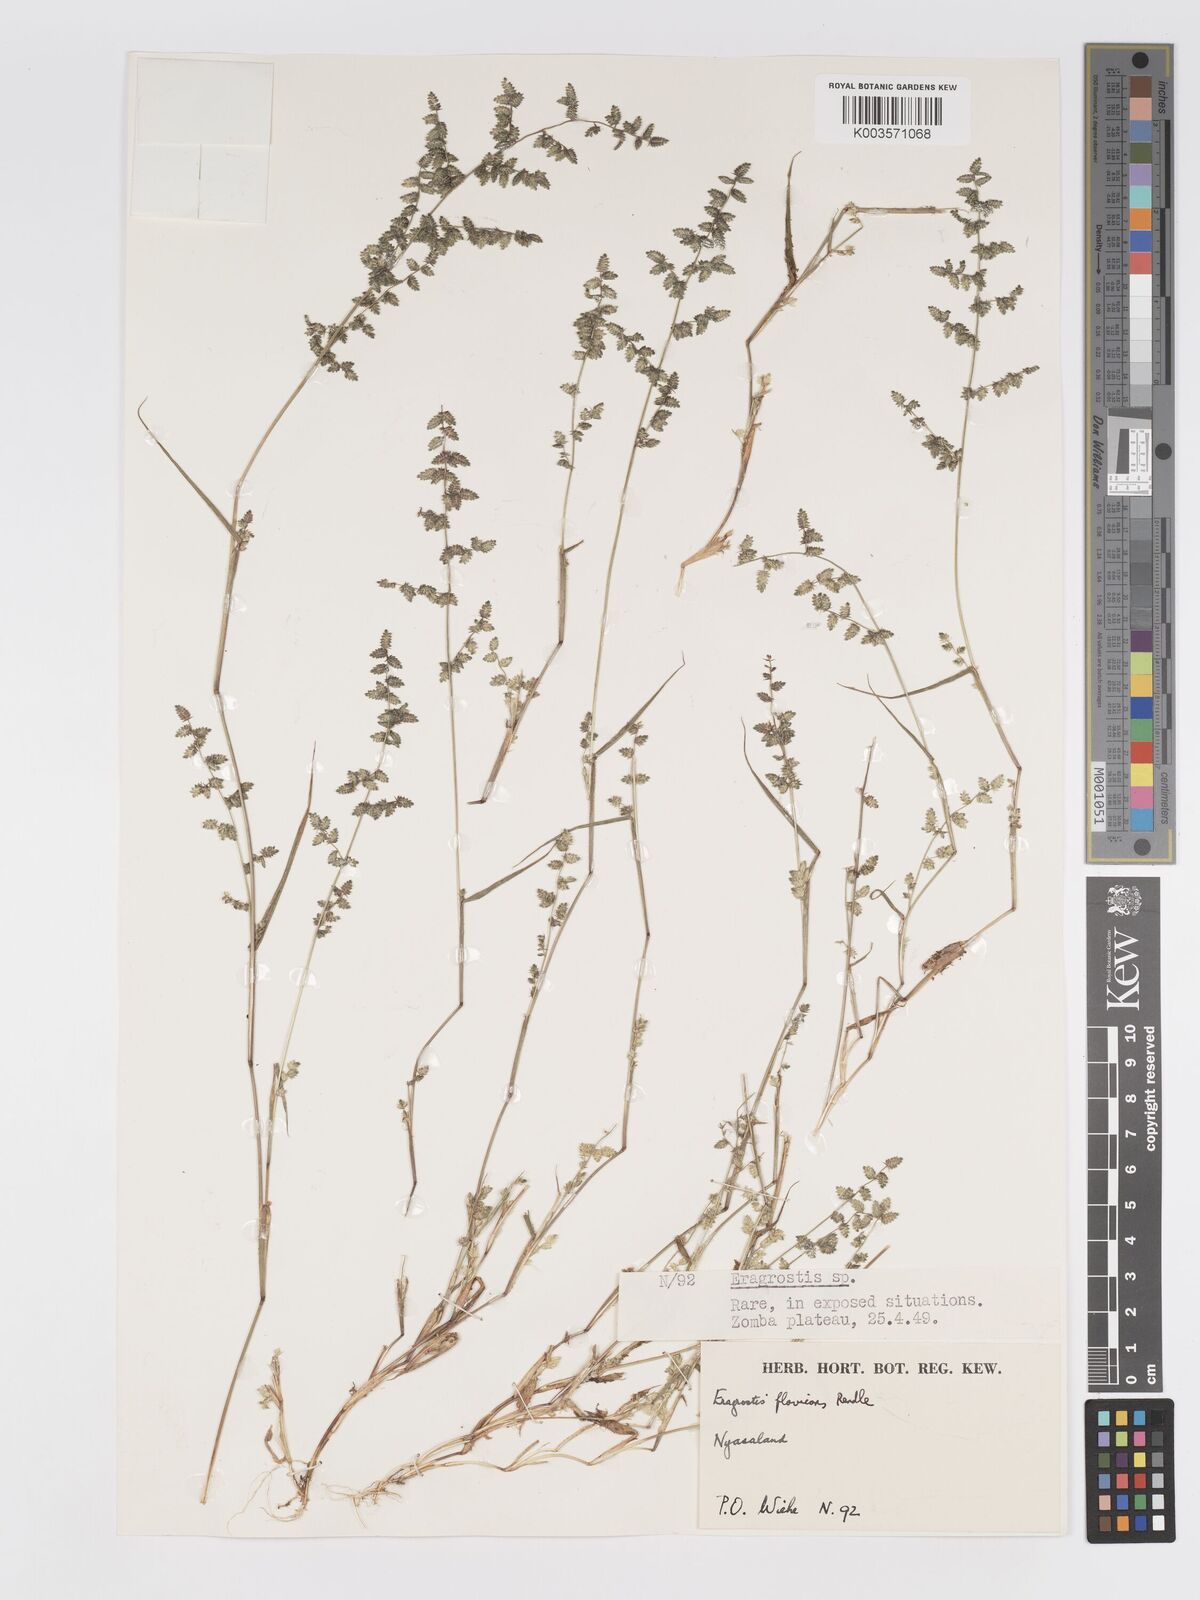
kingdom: Plantae
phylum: Tracheophyta
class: Liliopsida
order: Poales
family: Poaceae
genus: Eragrostis
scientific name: Eragrostis flavicans
